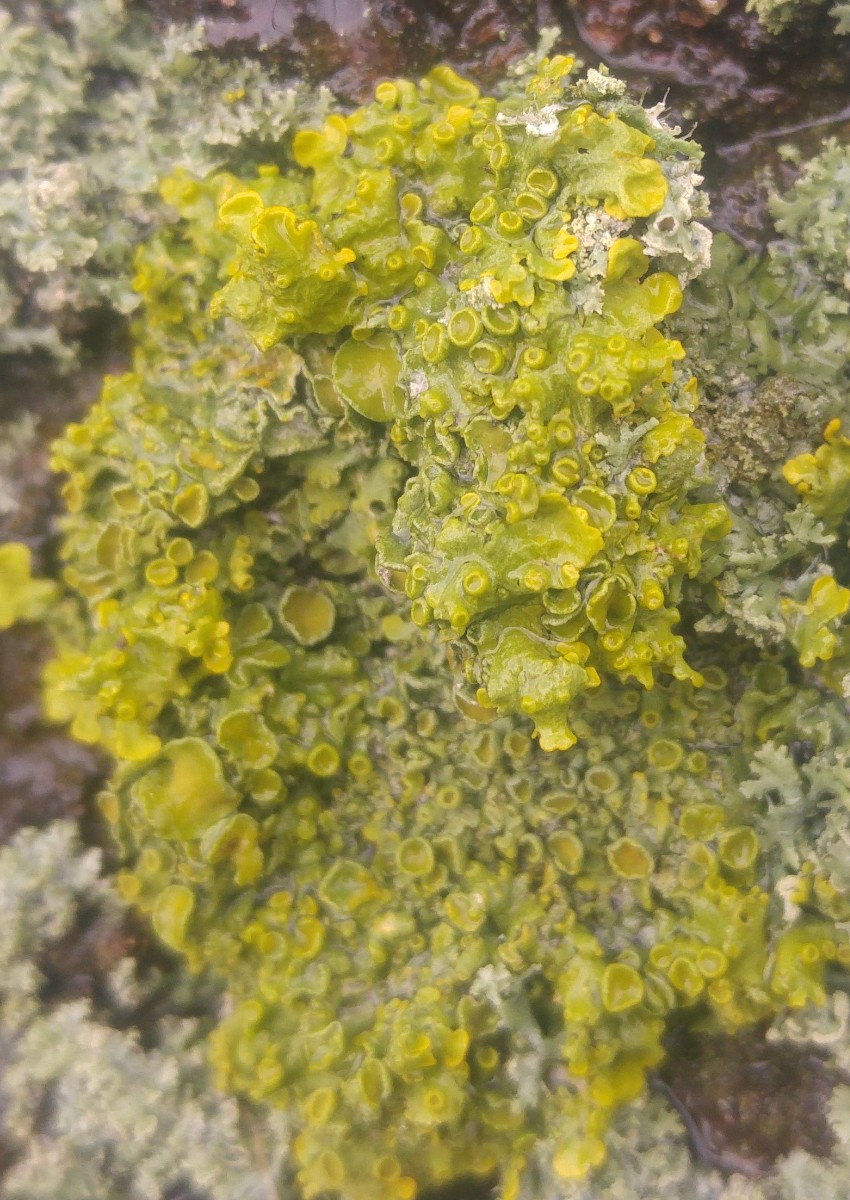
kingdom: Fungi
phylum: Ascomycota
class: Lecanoromycetes
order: Teloschistales
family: Teloschistaceae
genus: Xanthoria
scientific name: Xanthoria parietina
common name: almindelig væggelav
